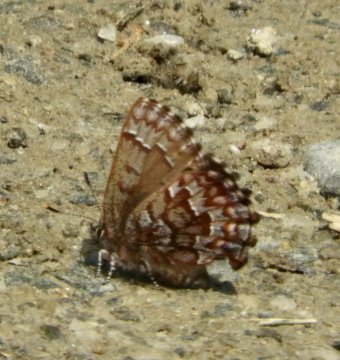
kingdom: Animalia
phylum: Arthropoda
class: Insecta
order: Lepidoptera
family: Lycaenidae
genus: Incisalia
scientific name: Incisalia niphon
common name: Eastern Pine Elfin
